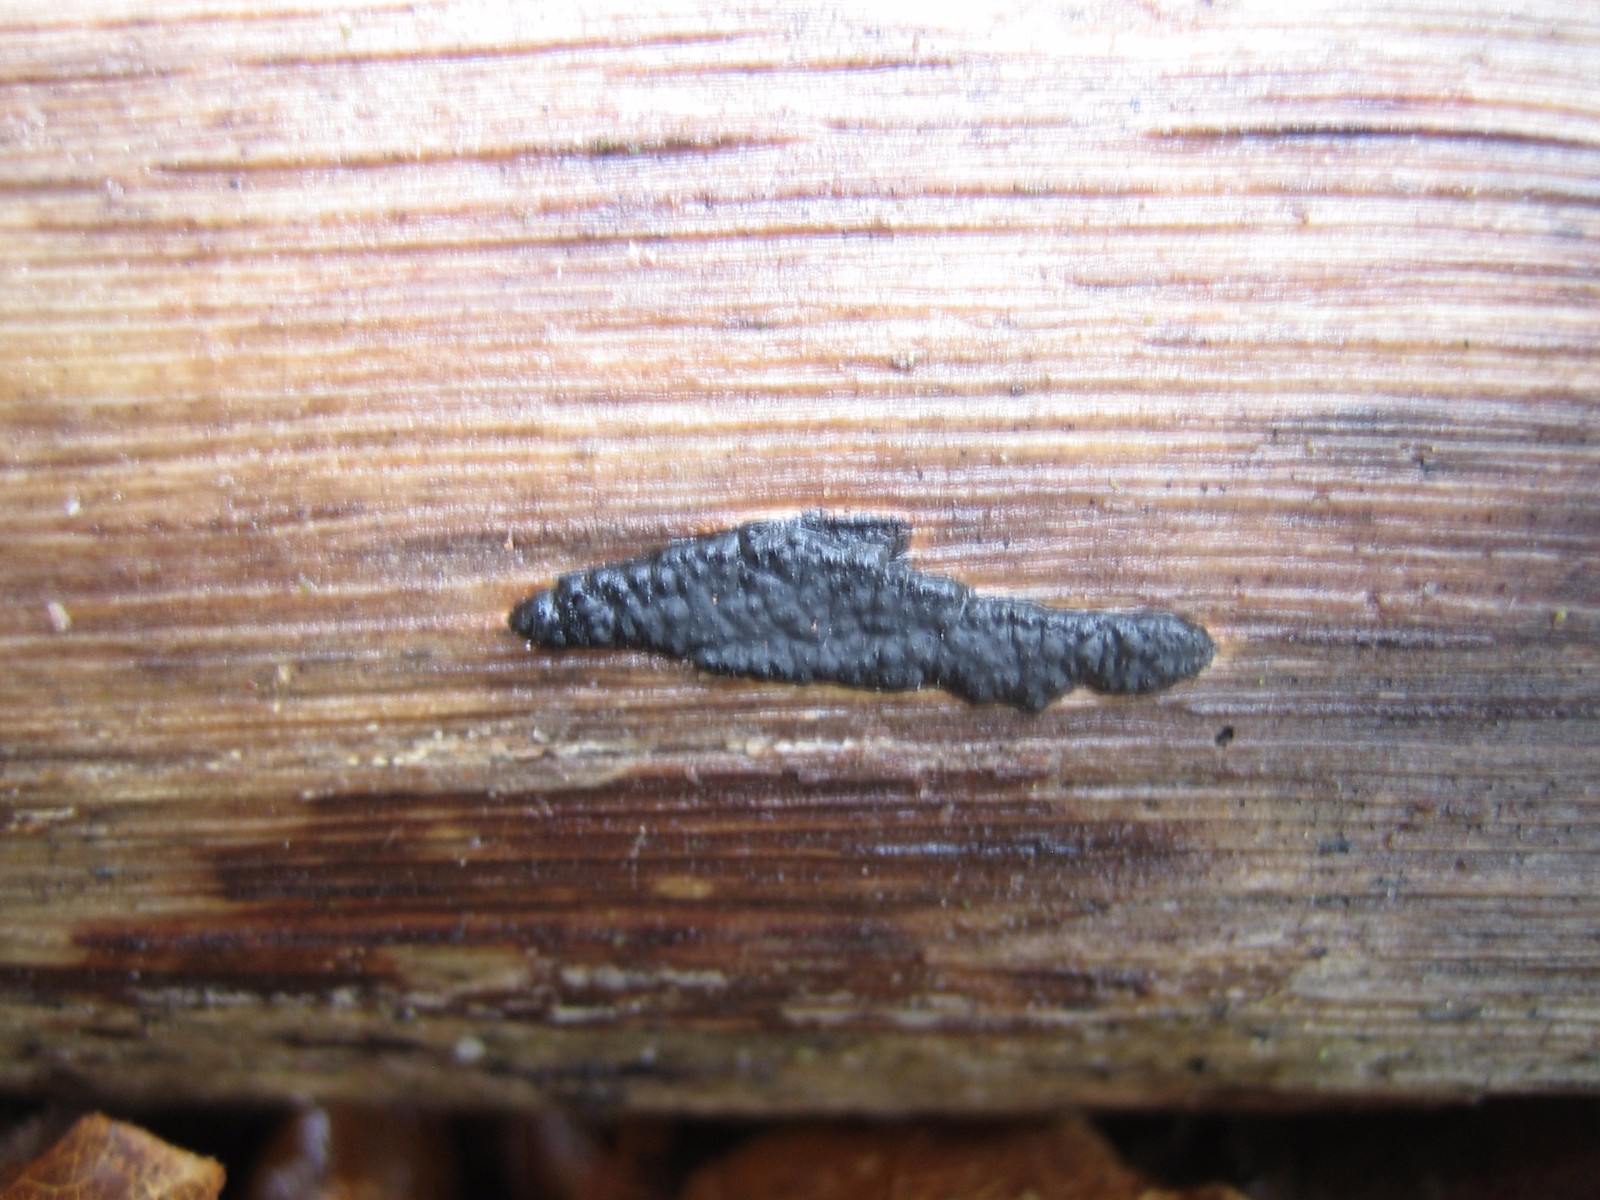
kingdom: Fungi
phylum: Ascomycota
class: Sordariomycetes
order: Xylariales
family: Xylariaceae
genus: Nemania
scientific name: Nemania
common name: kuldyne
